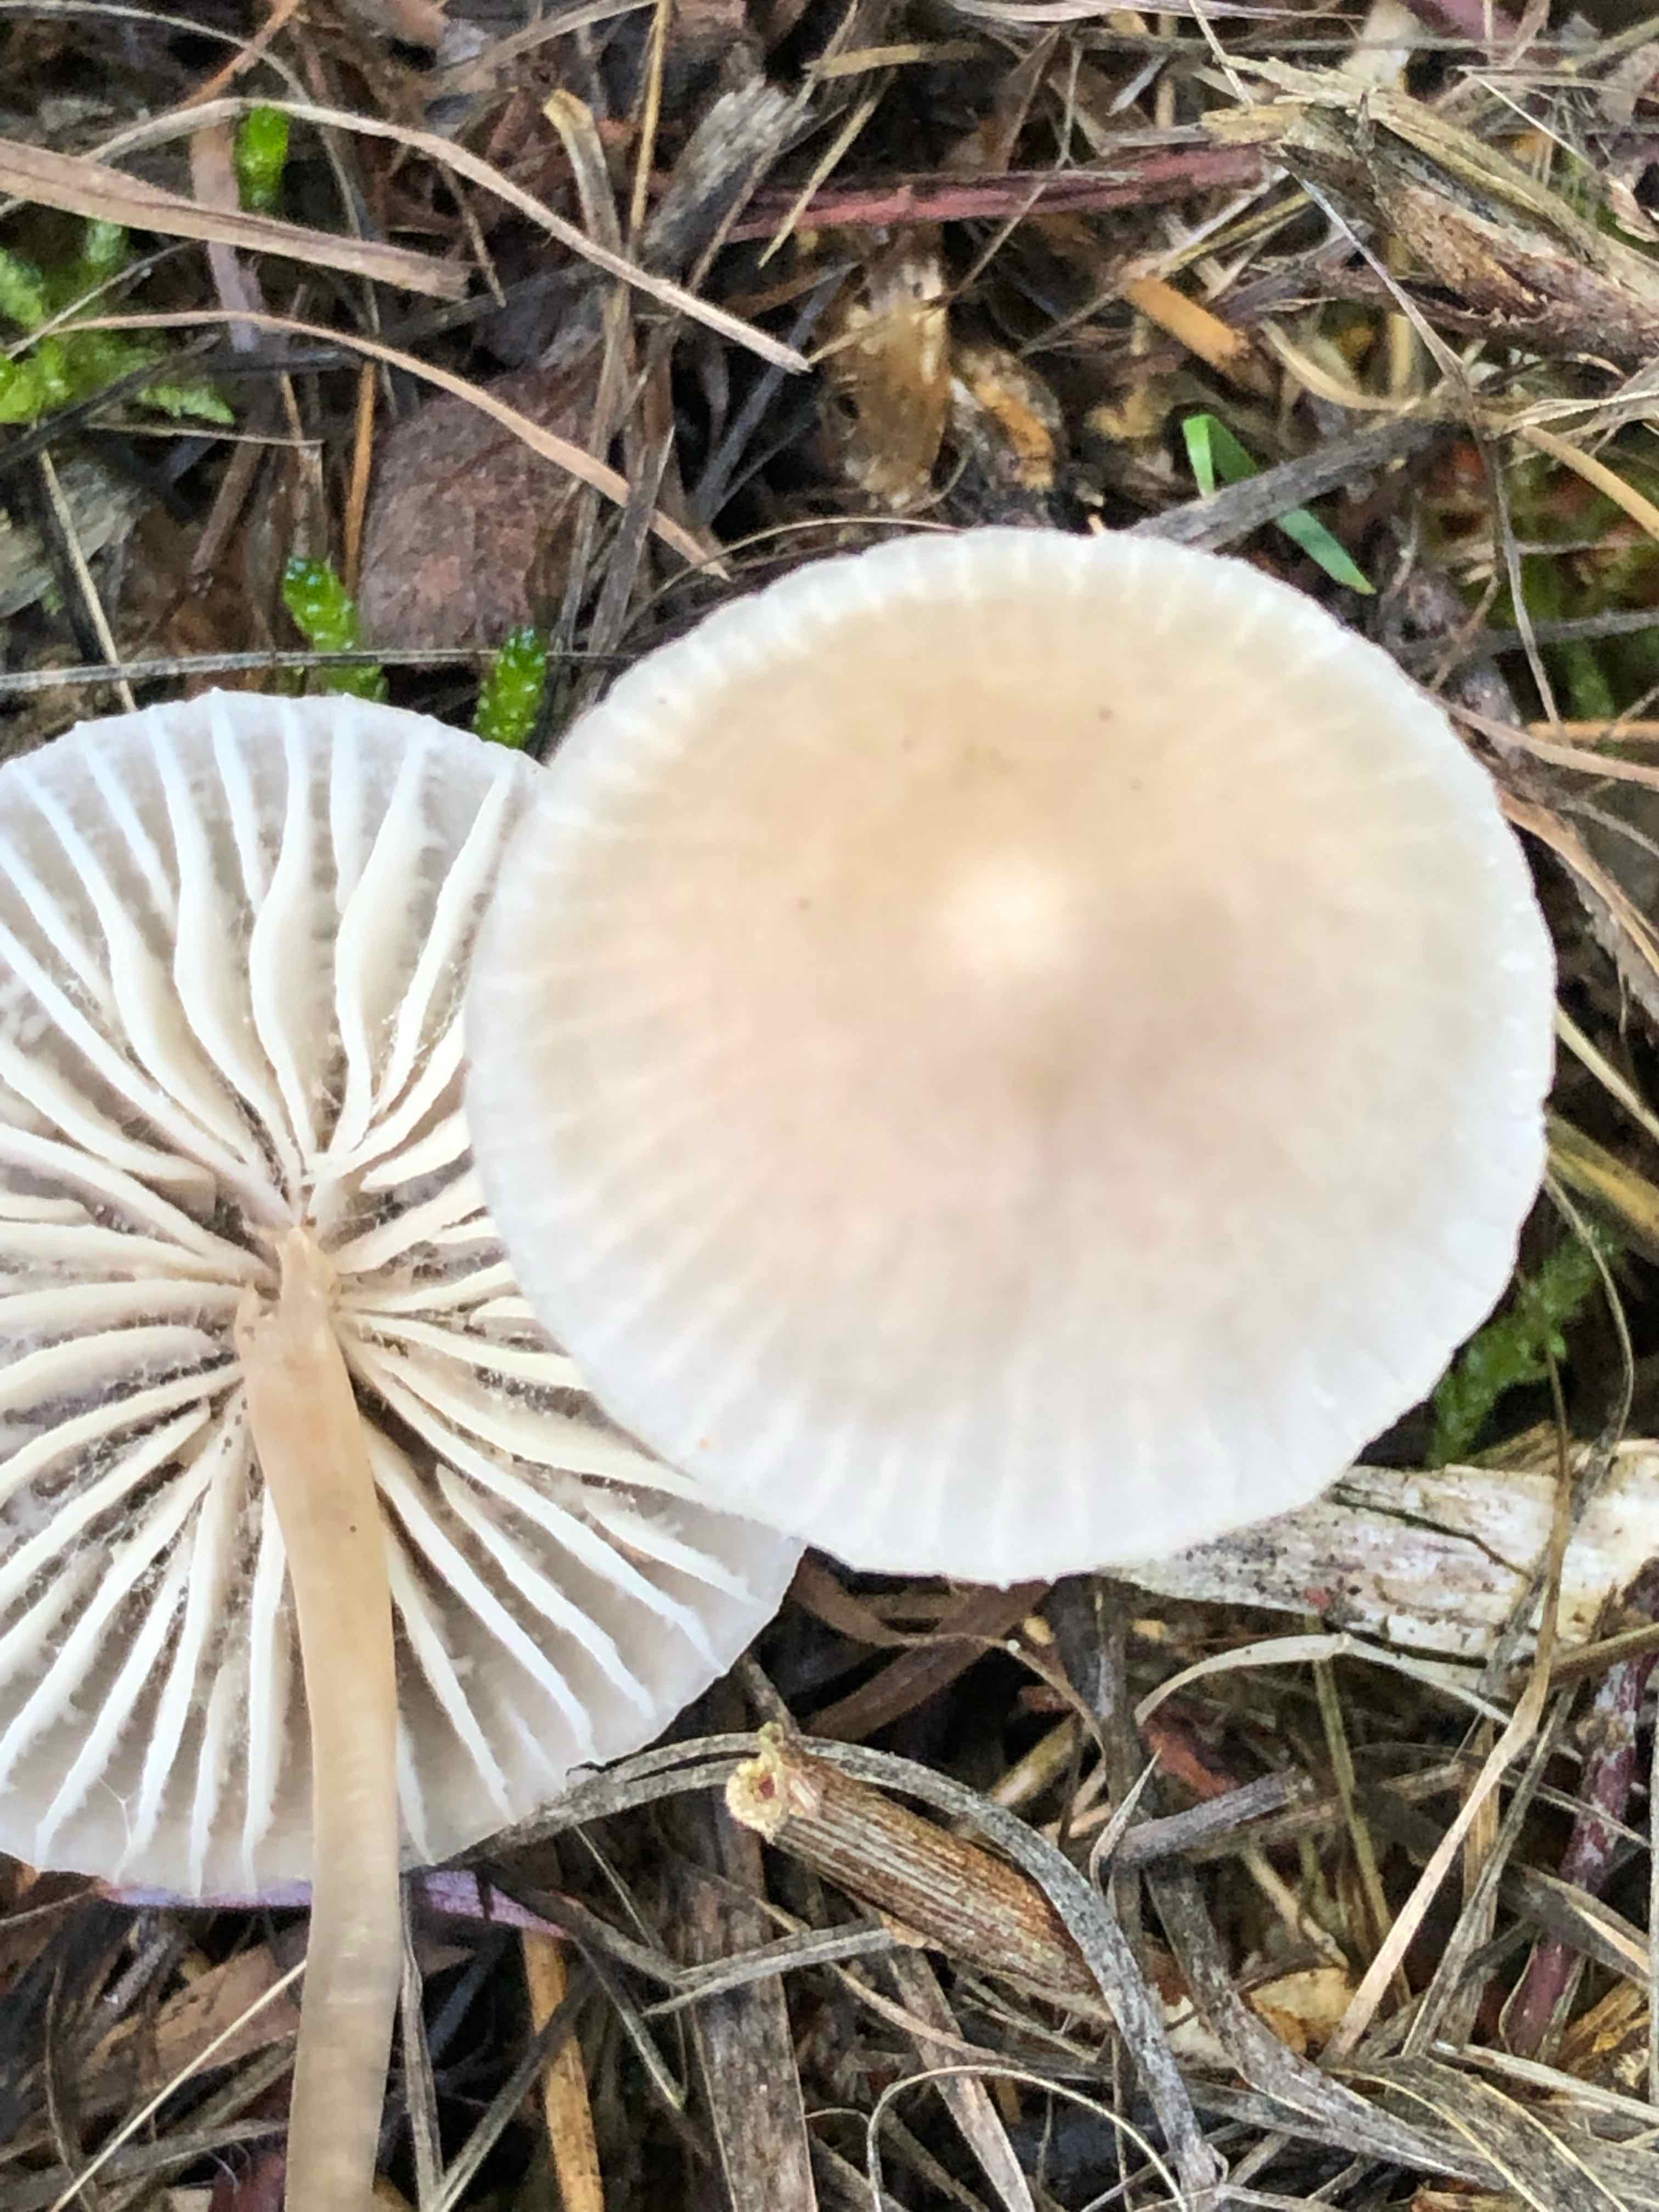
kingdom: Fungi
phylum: Basidiomycota
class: Agaricomycetes
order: Agaricales
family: Mycenaceae
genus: Mycena
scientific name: Mycena galericulata
